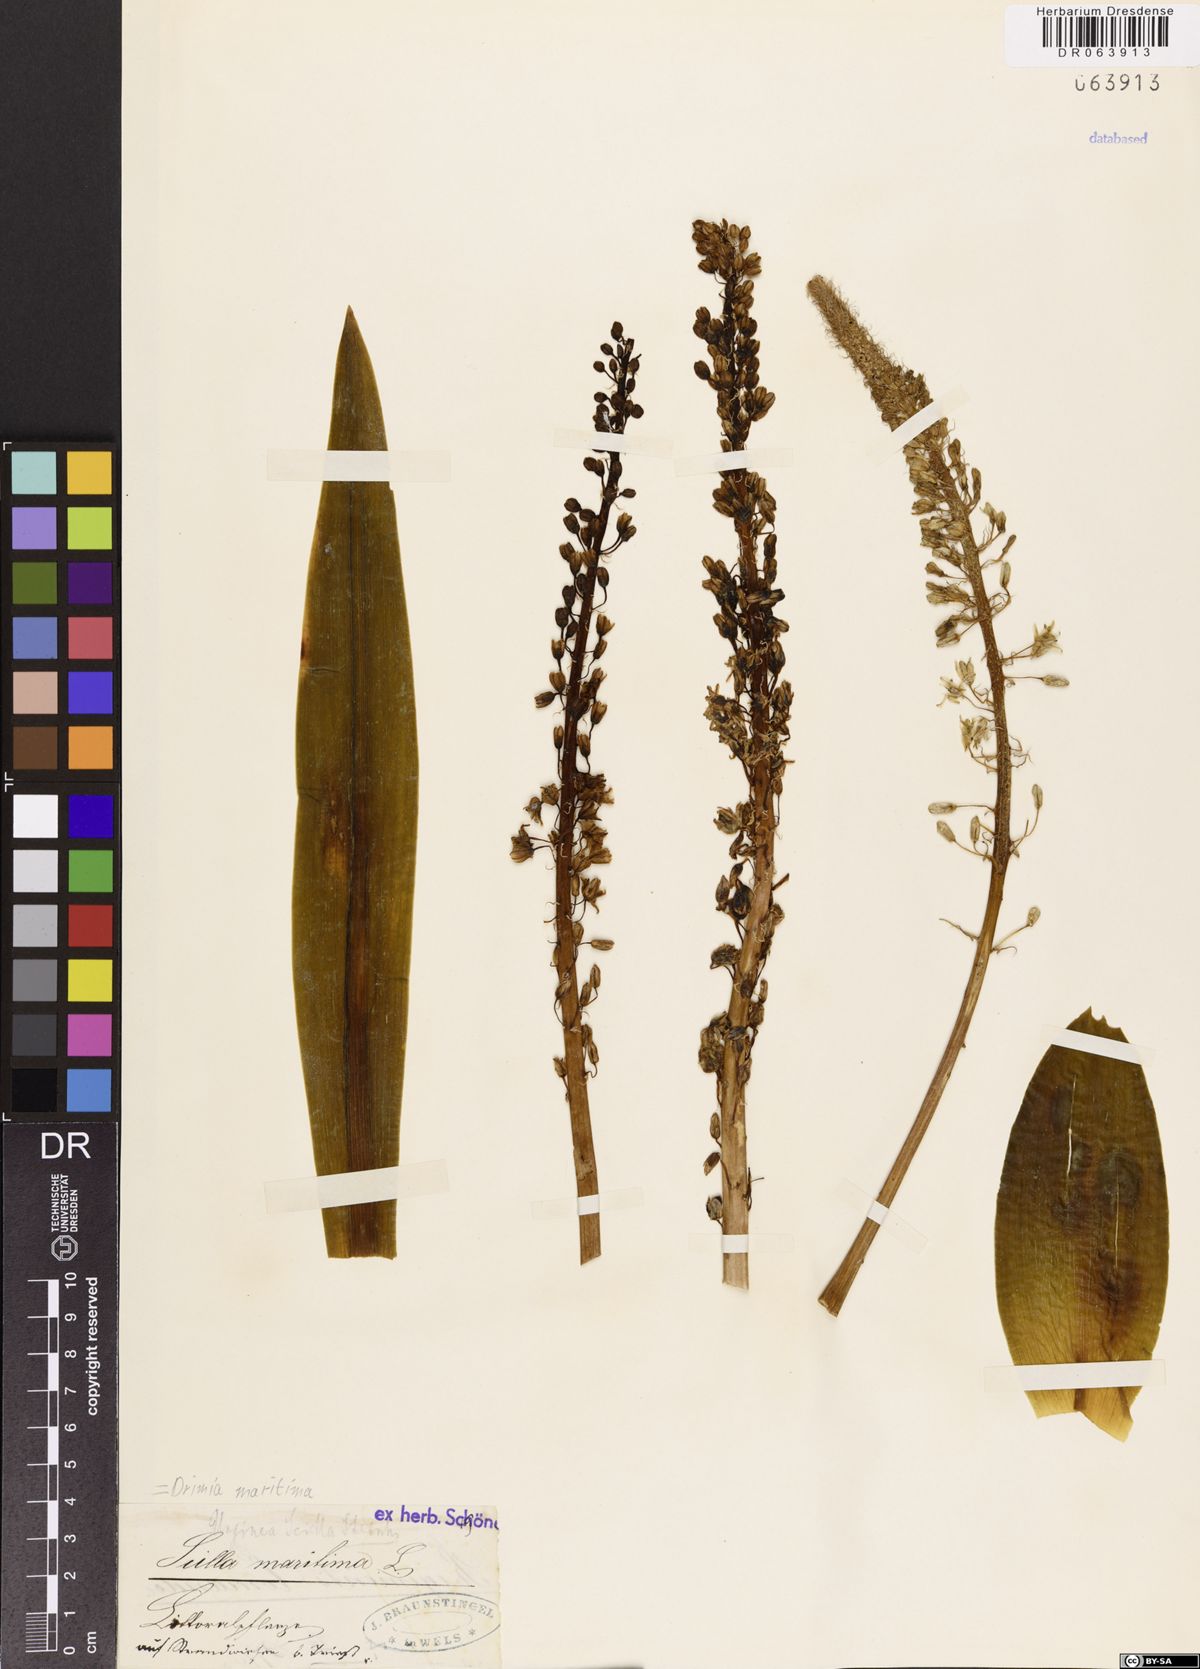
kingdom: Plantae
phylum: Tracheophyta
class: Liliopsida
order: Asparagales
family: Asparagaceae
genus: Drimia
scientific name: Drimia maritima
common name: Maritime squill
